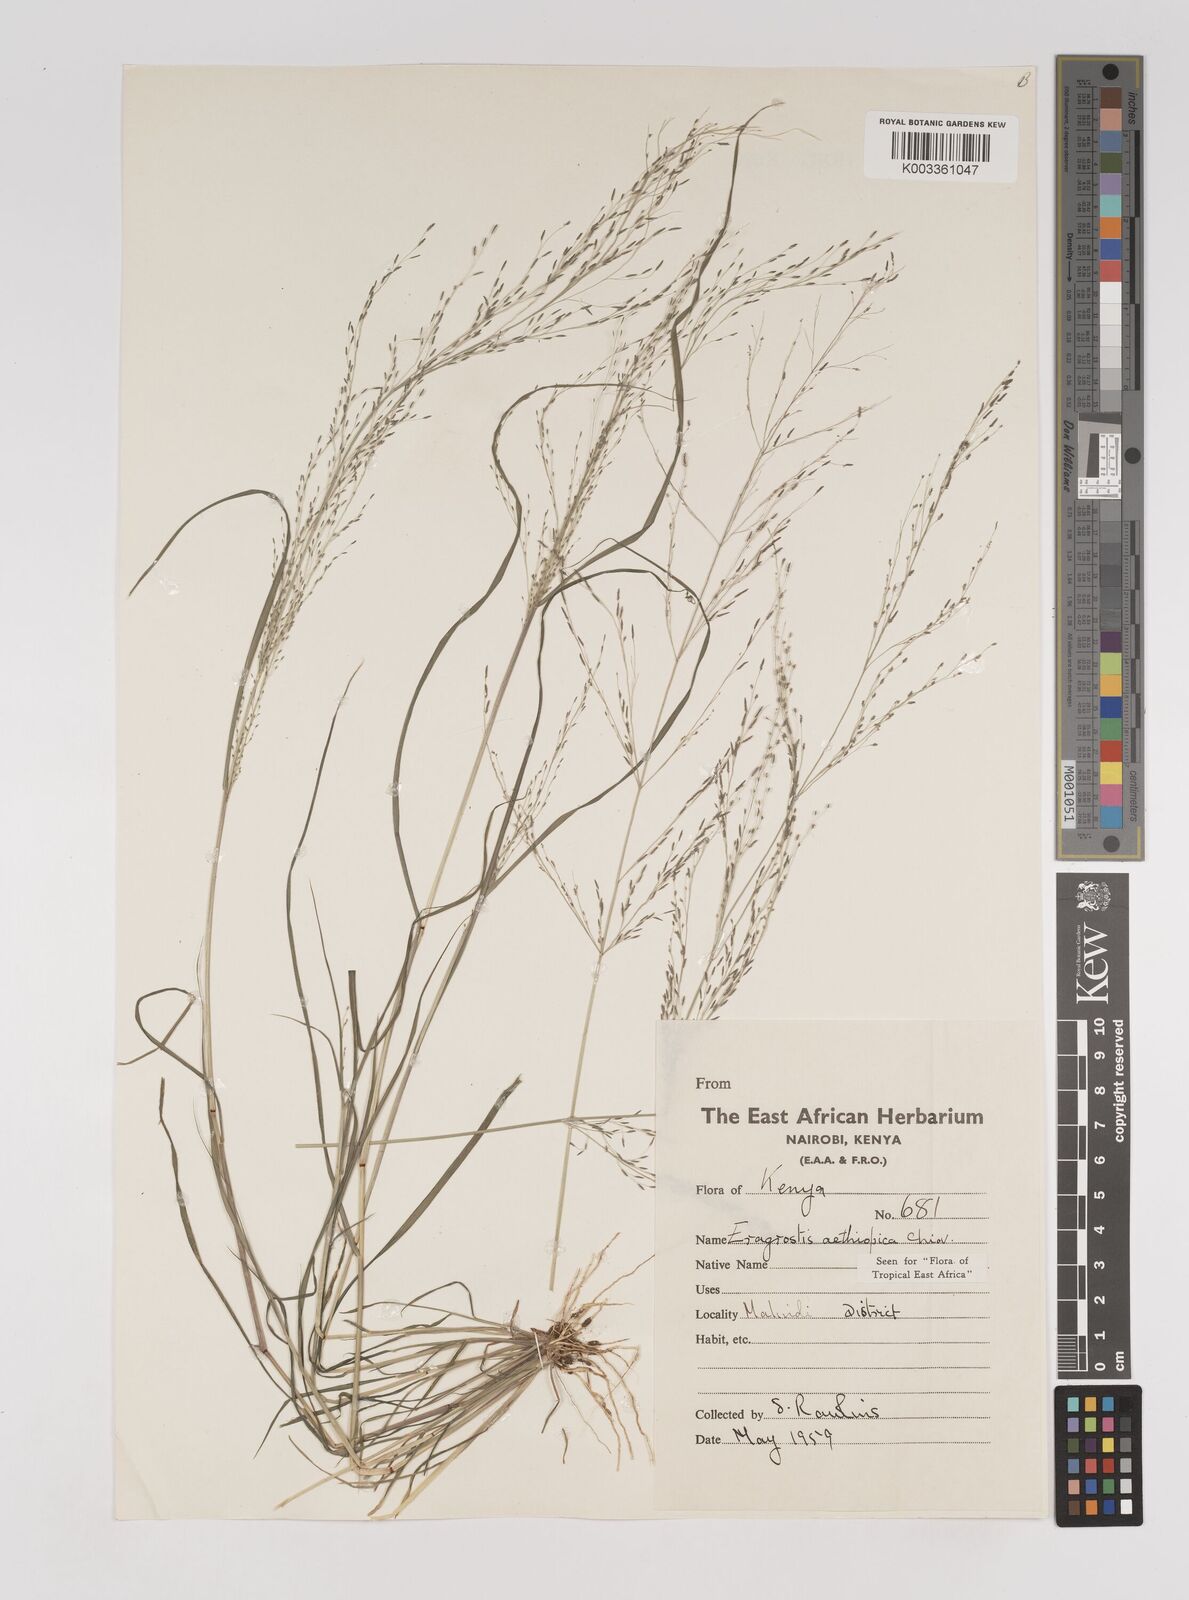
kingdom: Plantae
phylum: Tracheophyta
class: Liliopsida
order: Poales
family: Poaceae
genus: Eragrostis
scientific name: Eragrostis aethiopica
